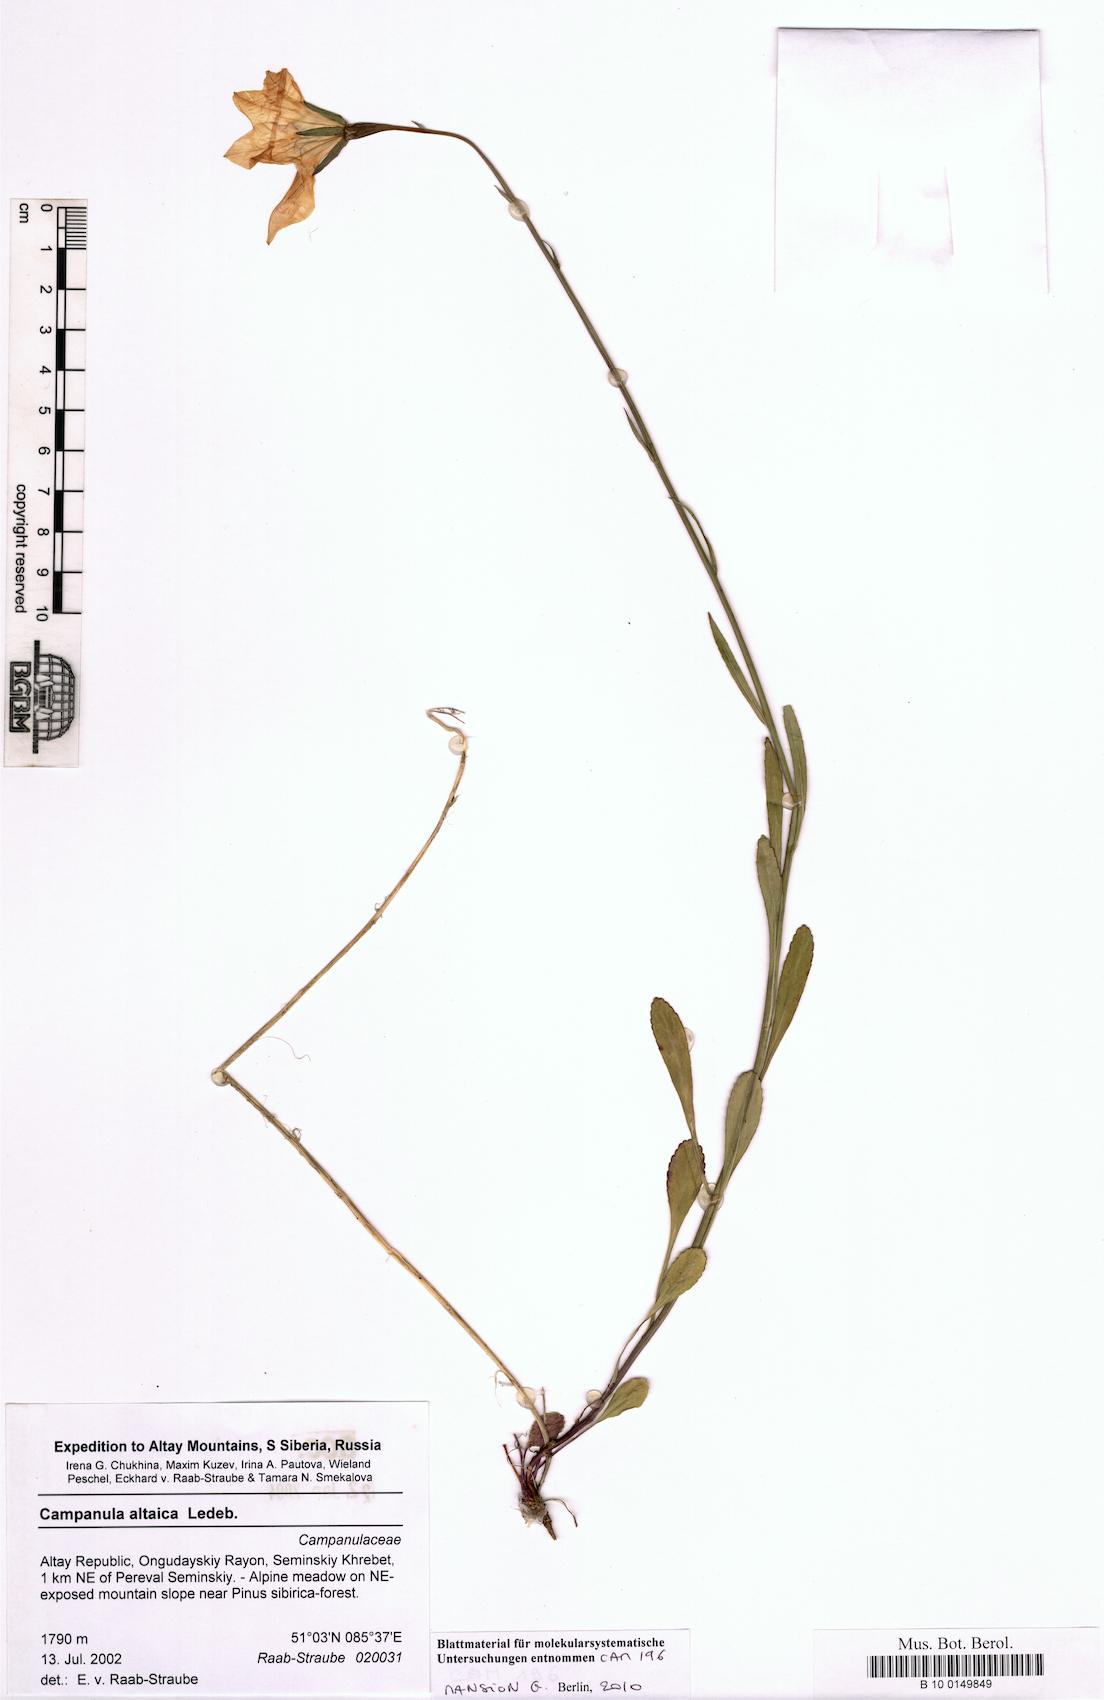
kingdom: Plantae
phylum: Tracheophyta
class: Magnoliopsida
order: Asterales
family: Campanulaceae
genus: Campanula
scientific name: Campanula stevenii
